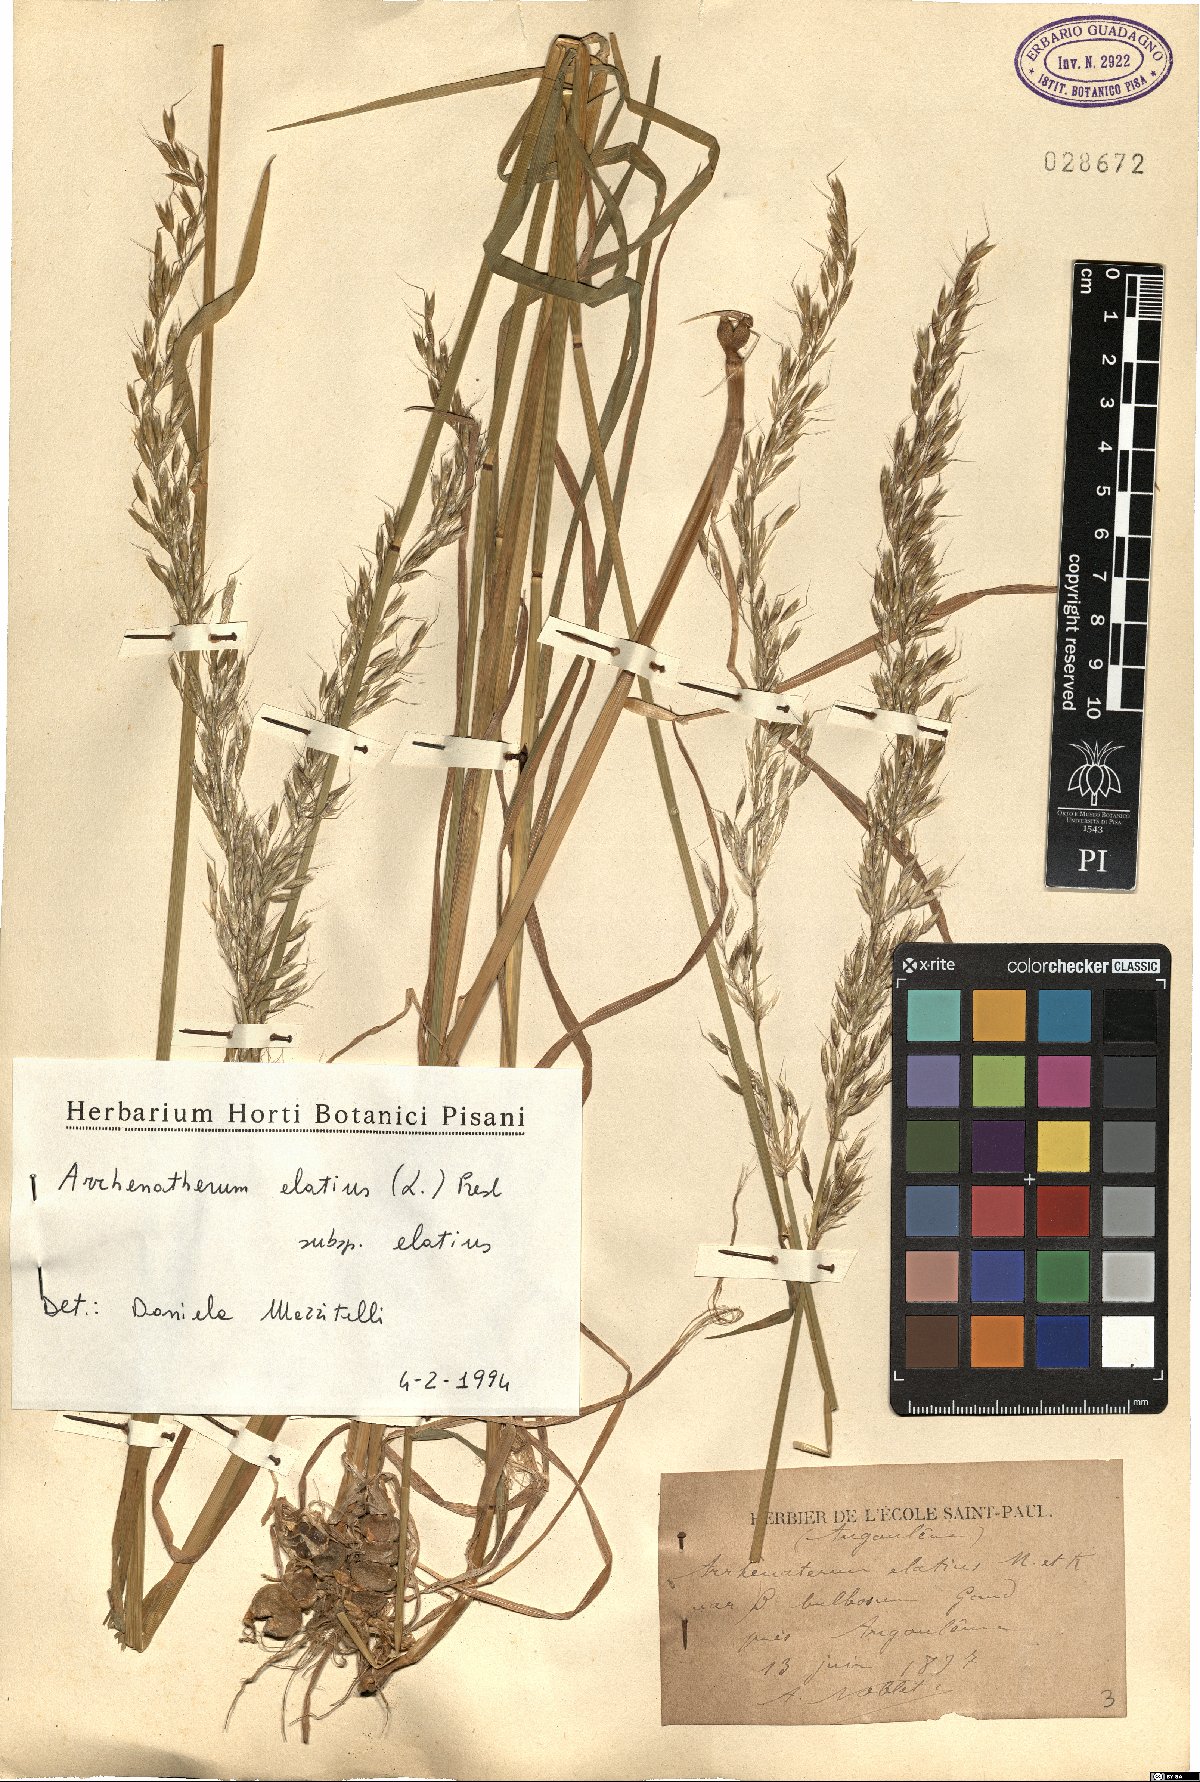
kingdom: Plantae
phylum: Tracheophyta
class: Liliopsida
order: Poales
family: Poaceae
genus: Arrhenatherum
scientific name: Arrhenatherum elatius
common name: Tall oatgrass
